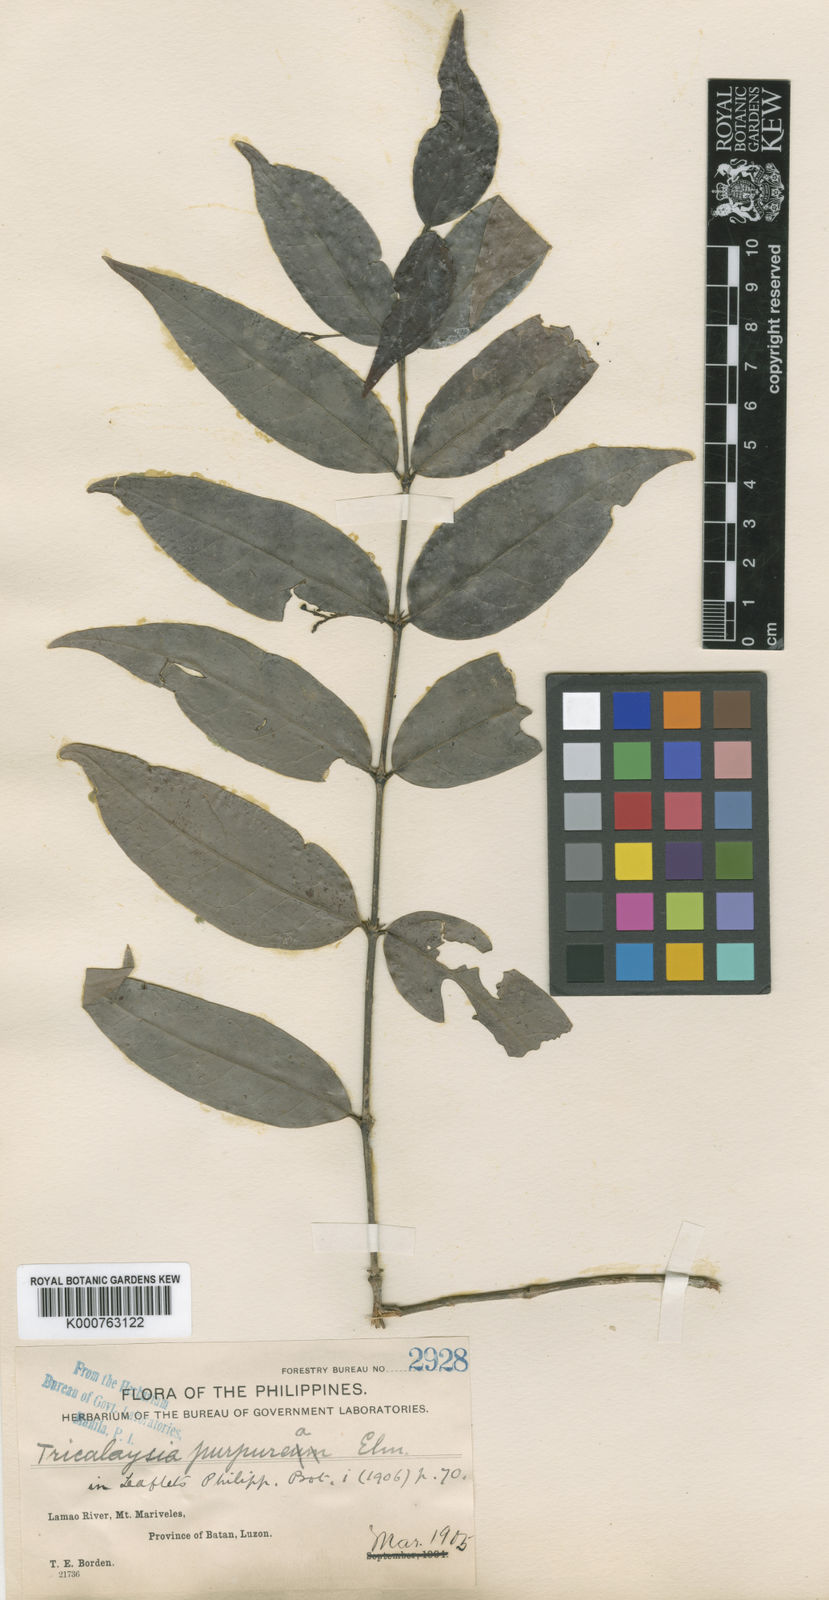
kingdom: Plantae
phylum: Tracheophyta
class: Magnoliopsida
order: Gentianales
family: Rubiaceae
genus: Villaria
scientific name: Villaria
